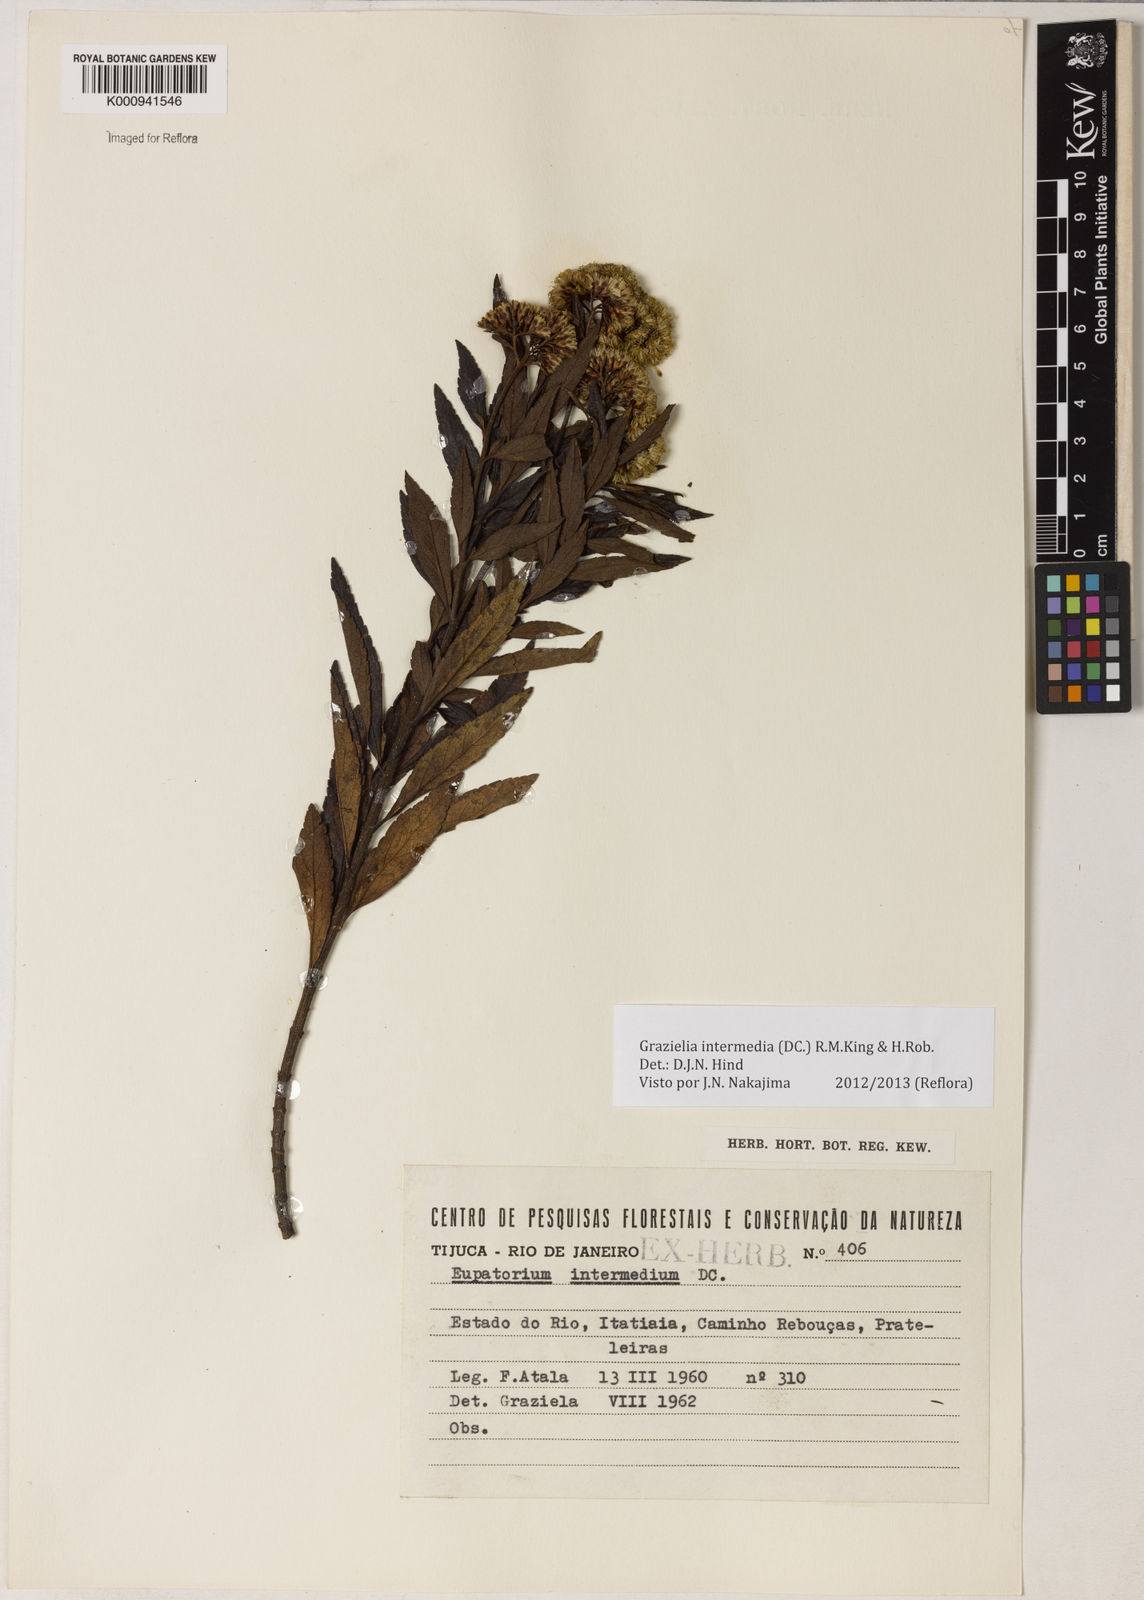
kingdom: Plantae
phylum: Tracheophyta
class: Magnoliopsida
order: Asterales
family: Asteraceae
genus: Grazielia
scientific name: Grazielia intermedia
